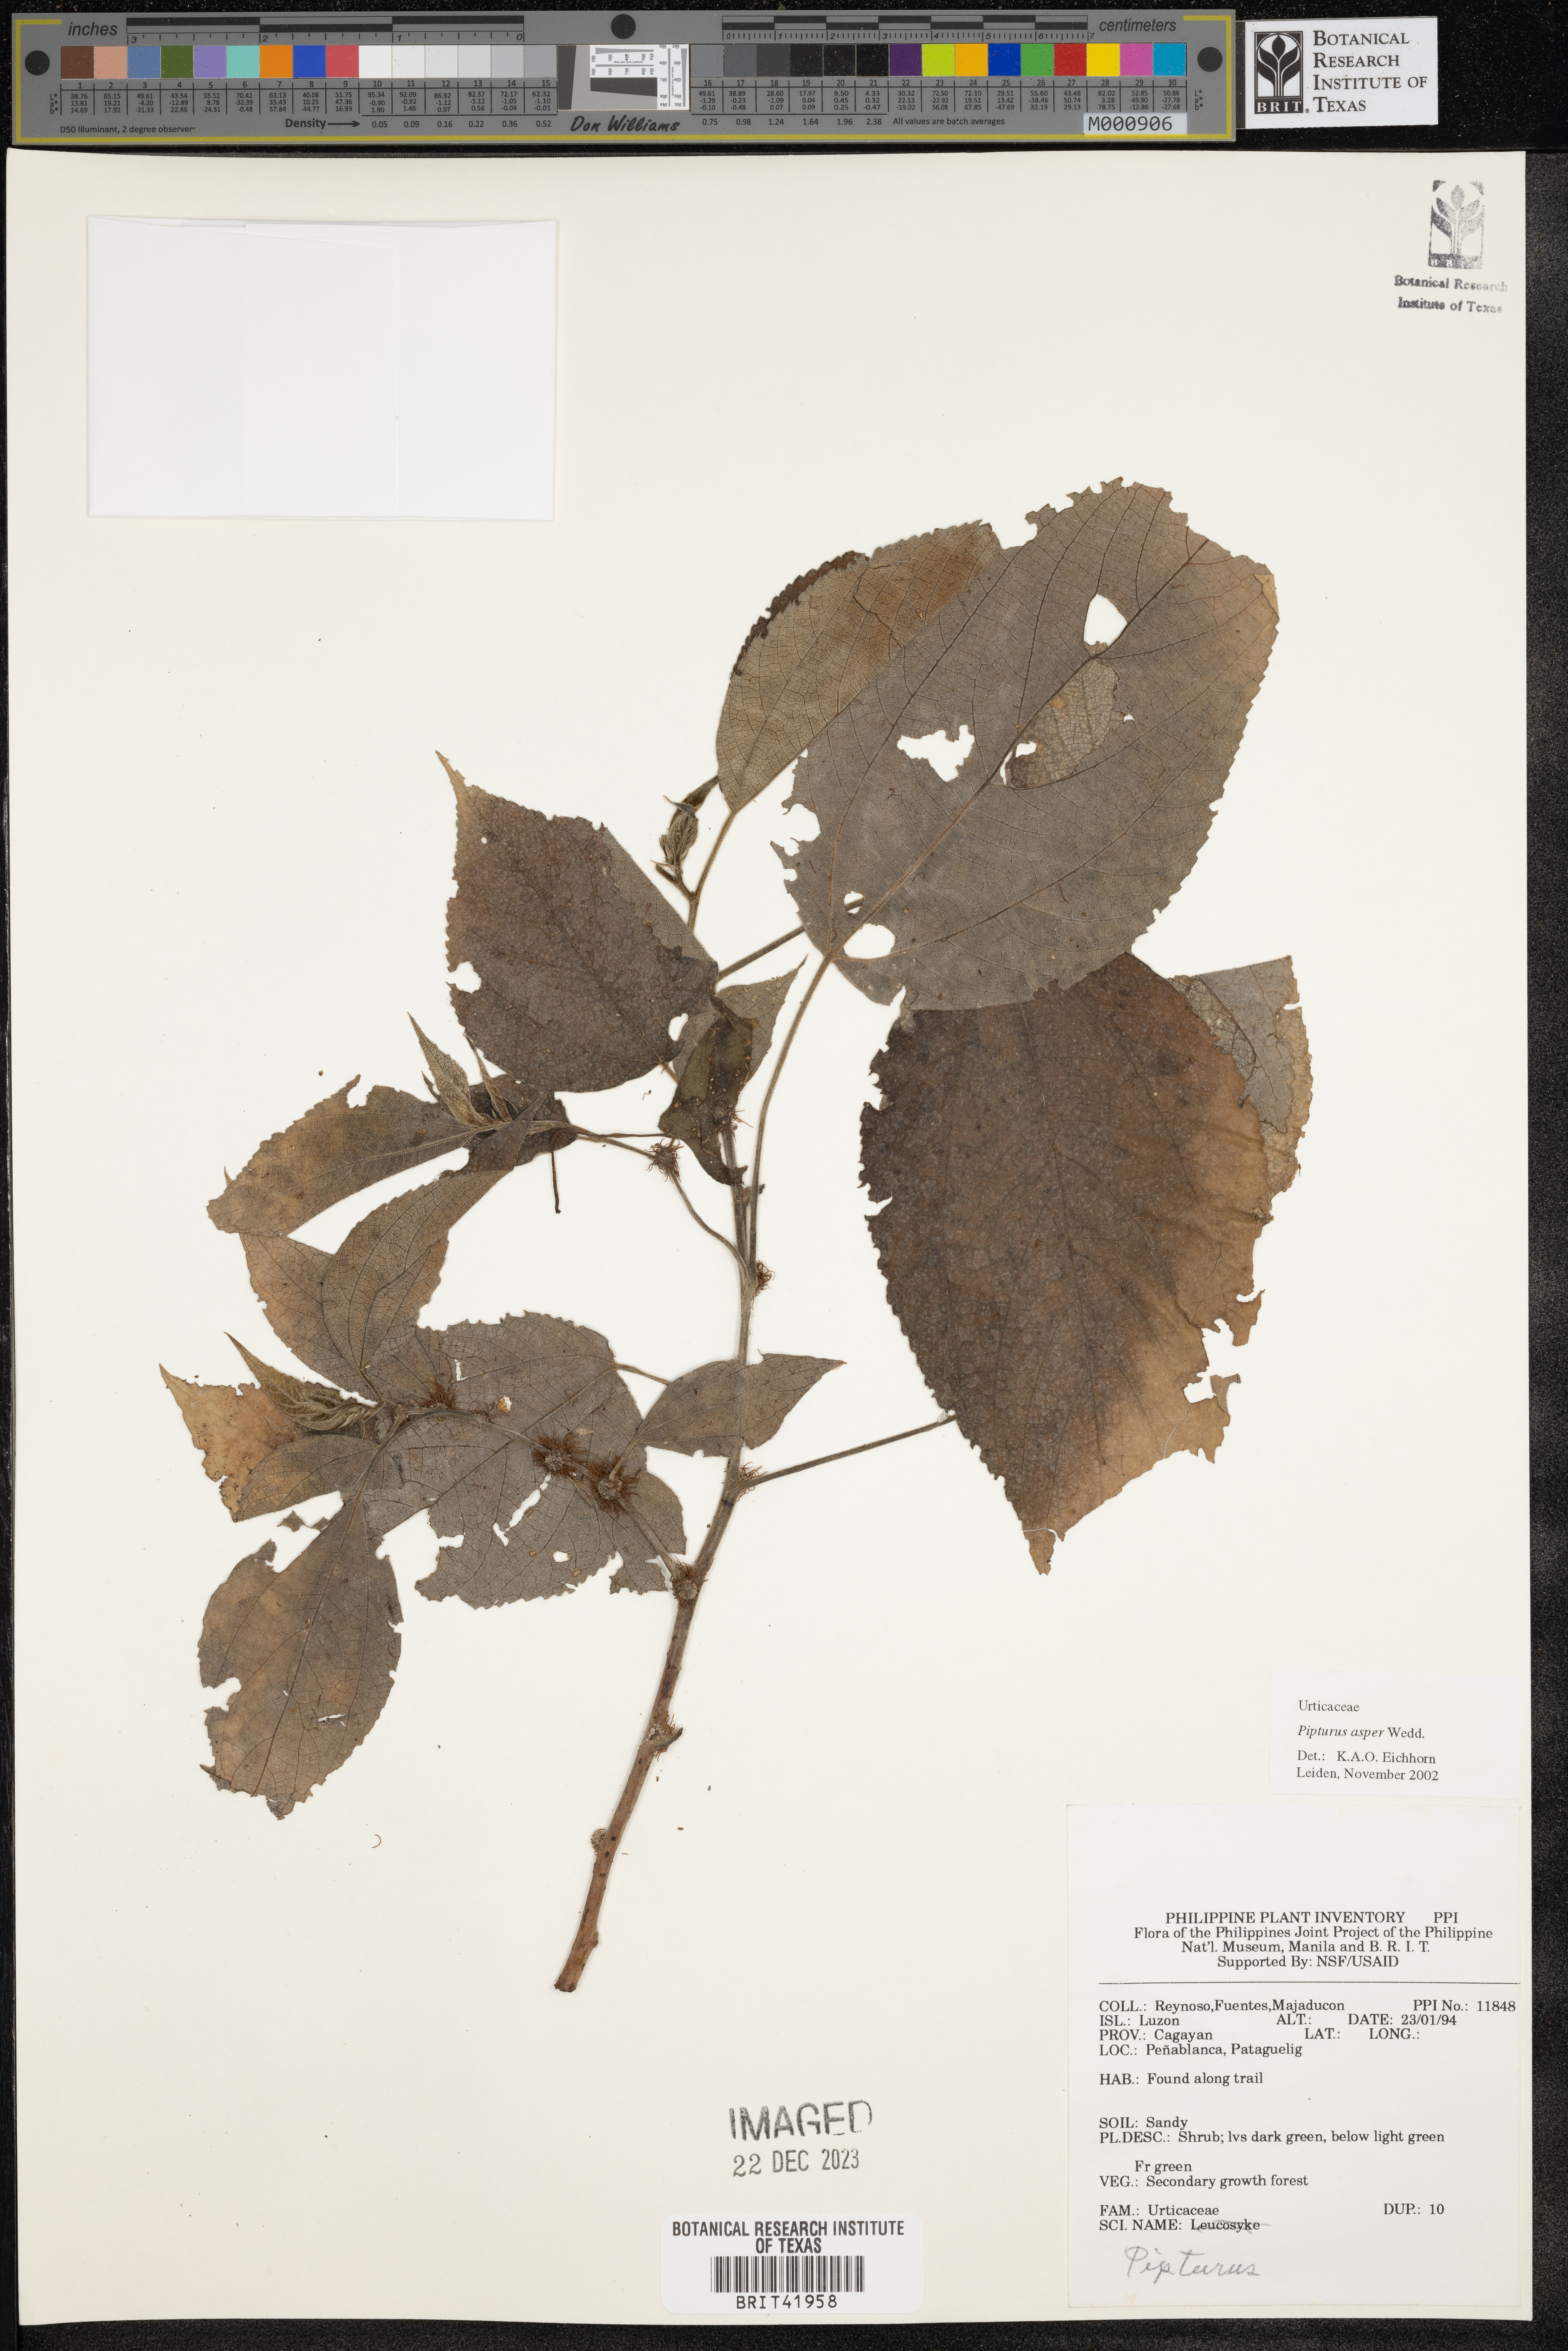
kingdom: Plantae
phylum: Tracheophyta
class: Magnoliopsida
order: Rosales
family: Urticaceae
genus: Pipturus
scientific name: Pipturus arborescens
